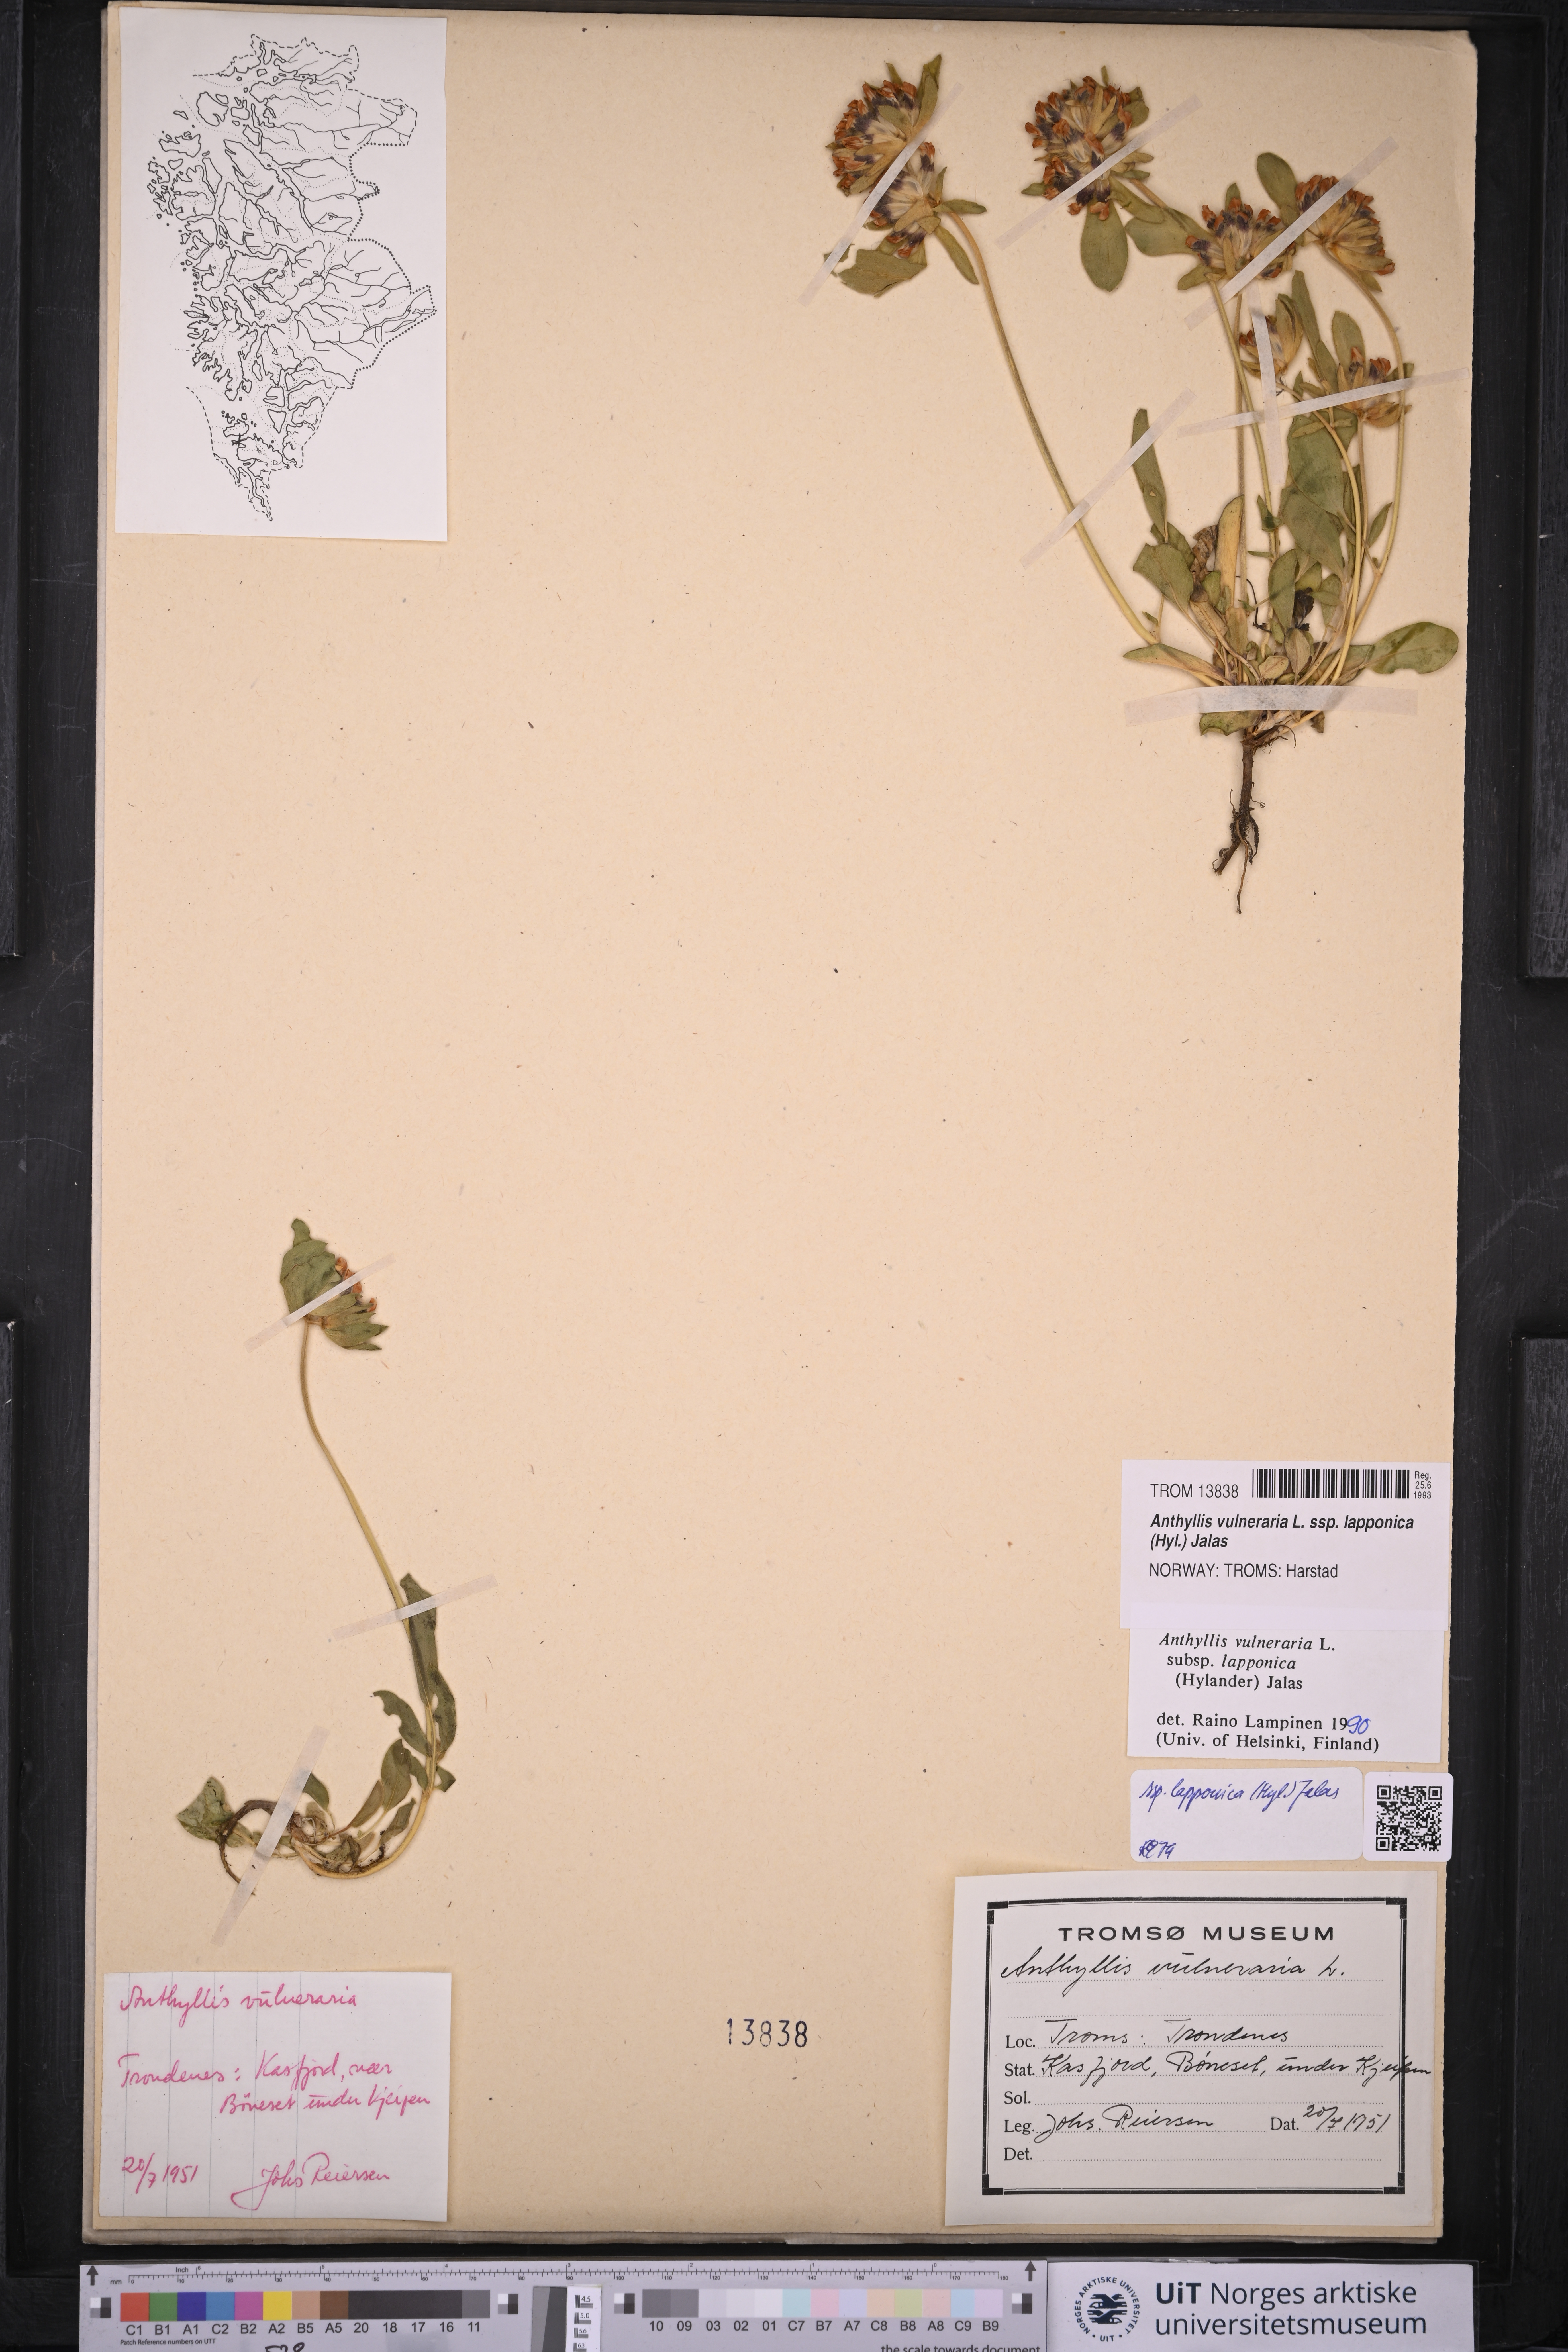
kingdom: Plantae
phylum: Tracheophyta
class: Magnoliopsida
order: Fabales
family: Fabaceae
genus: Anthyllis
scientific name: Anthyllis vulneraria
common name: Kidney vetch
